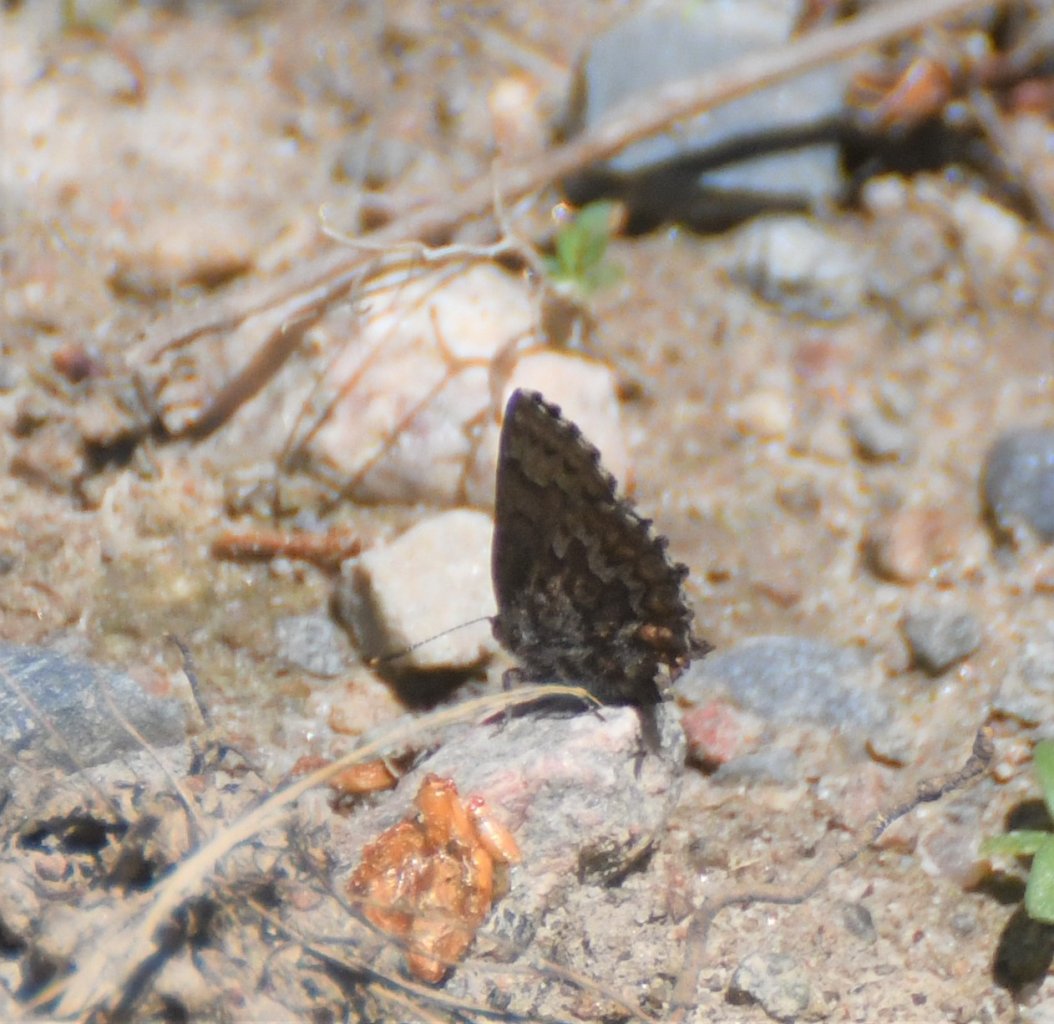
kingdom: Animalia
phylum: Arthropoda
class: Insecta
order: Lepidoptera
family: Lycaenidae
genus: Incisalia
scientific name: Incisalia niphon
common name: Eastern Pine Elfin
